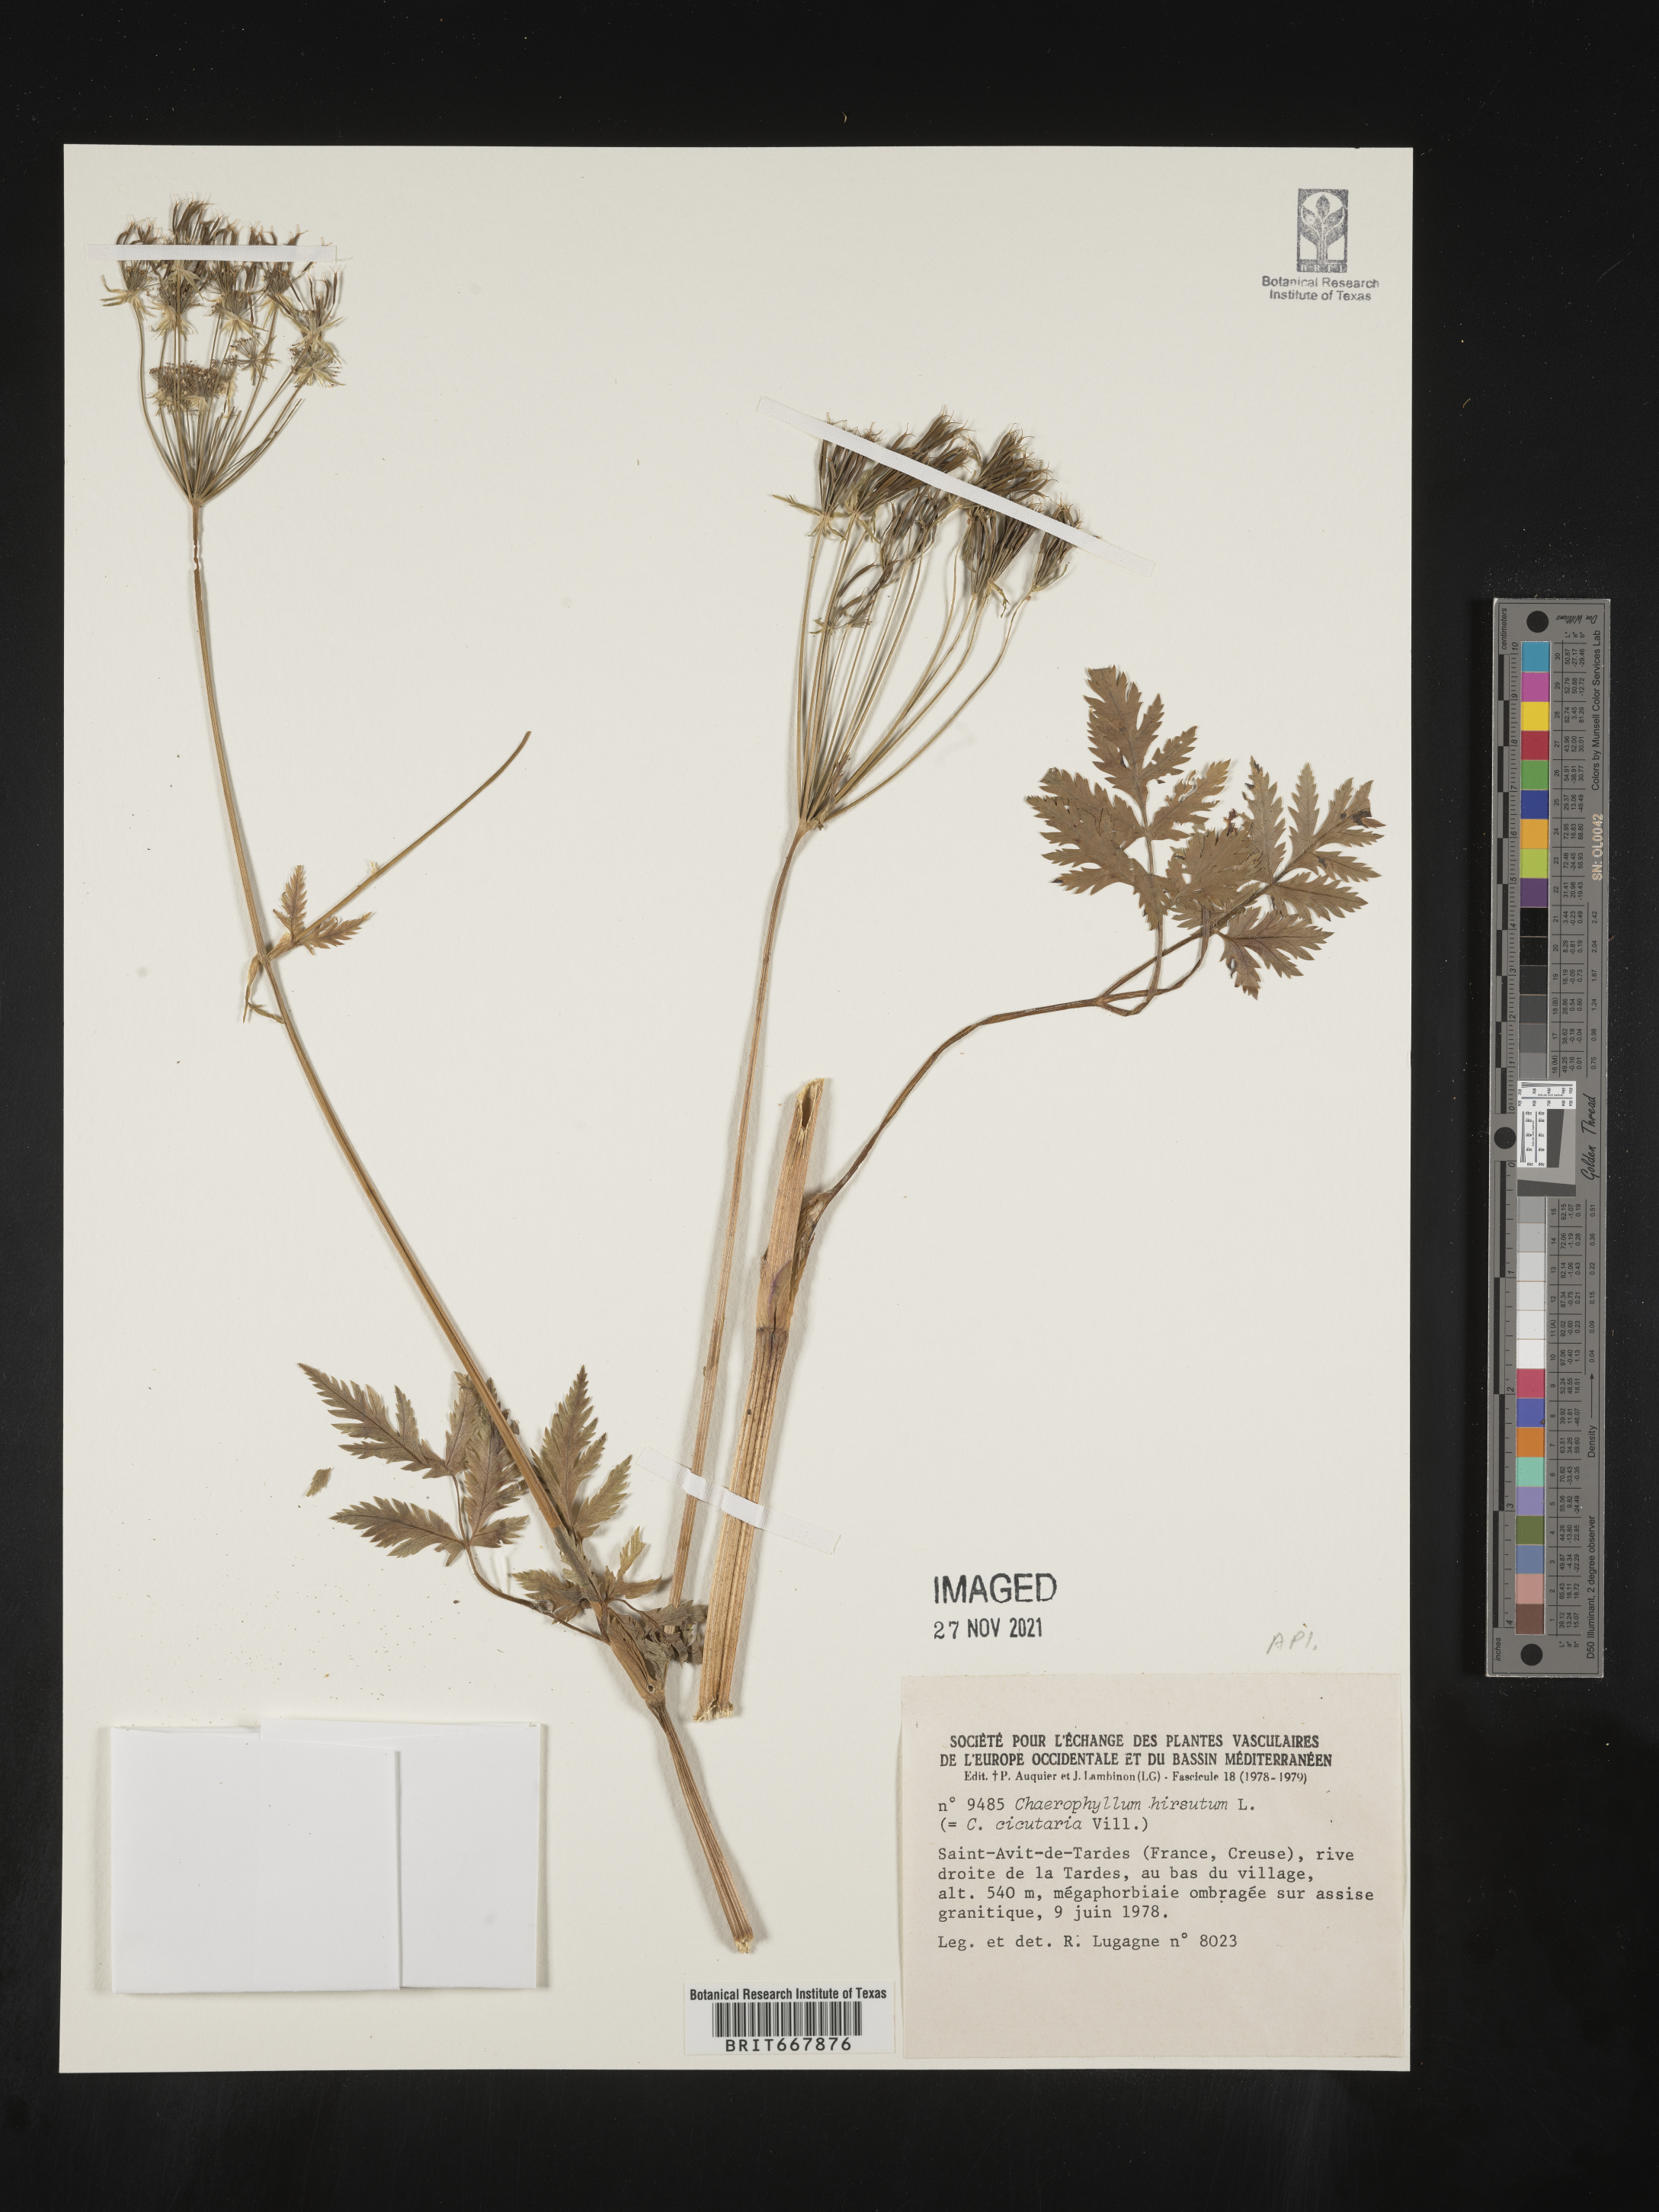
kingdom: Plantae
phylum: Tracheophyta
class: Magnoliopsida
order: Apiales
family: Apiaceae
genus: Chaerophyllum
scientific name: Chaerophyllum
